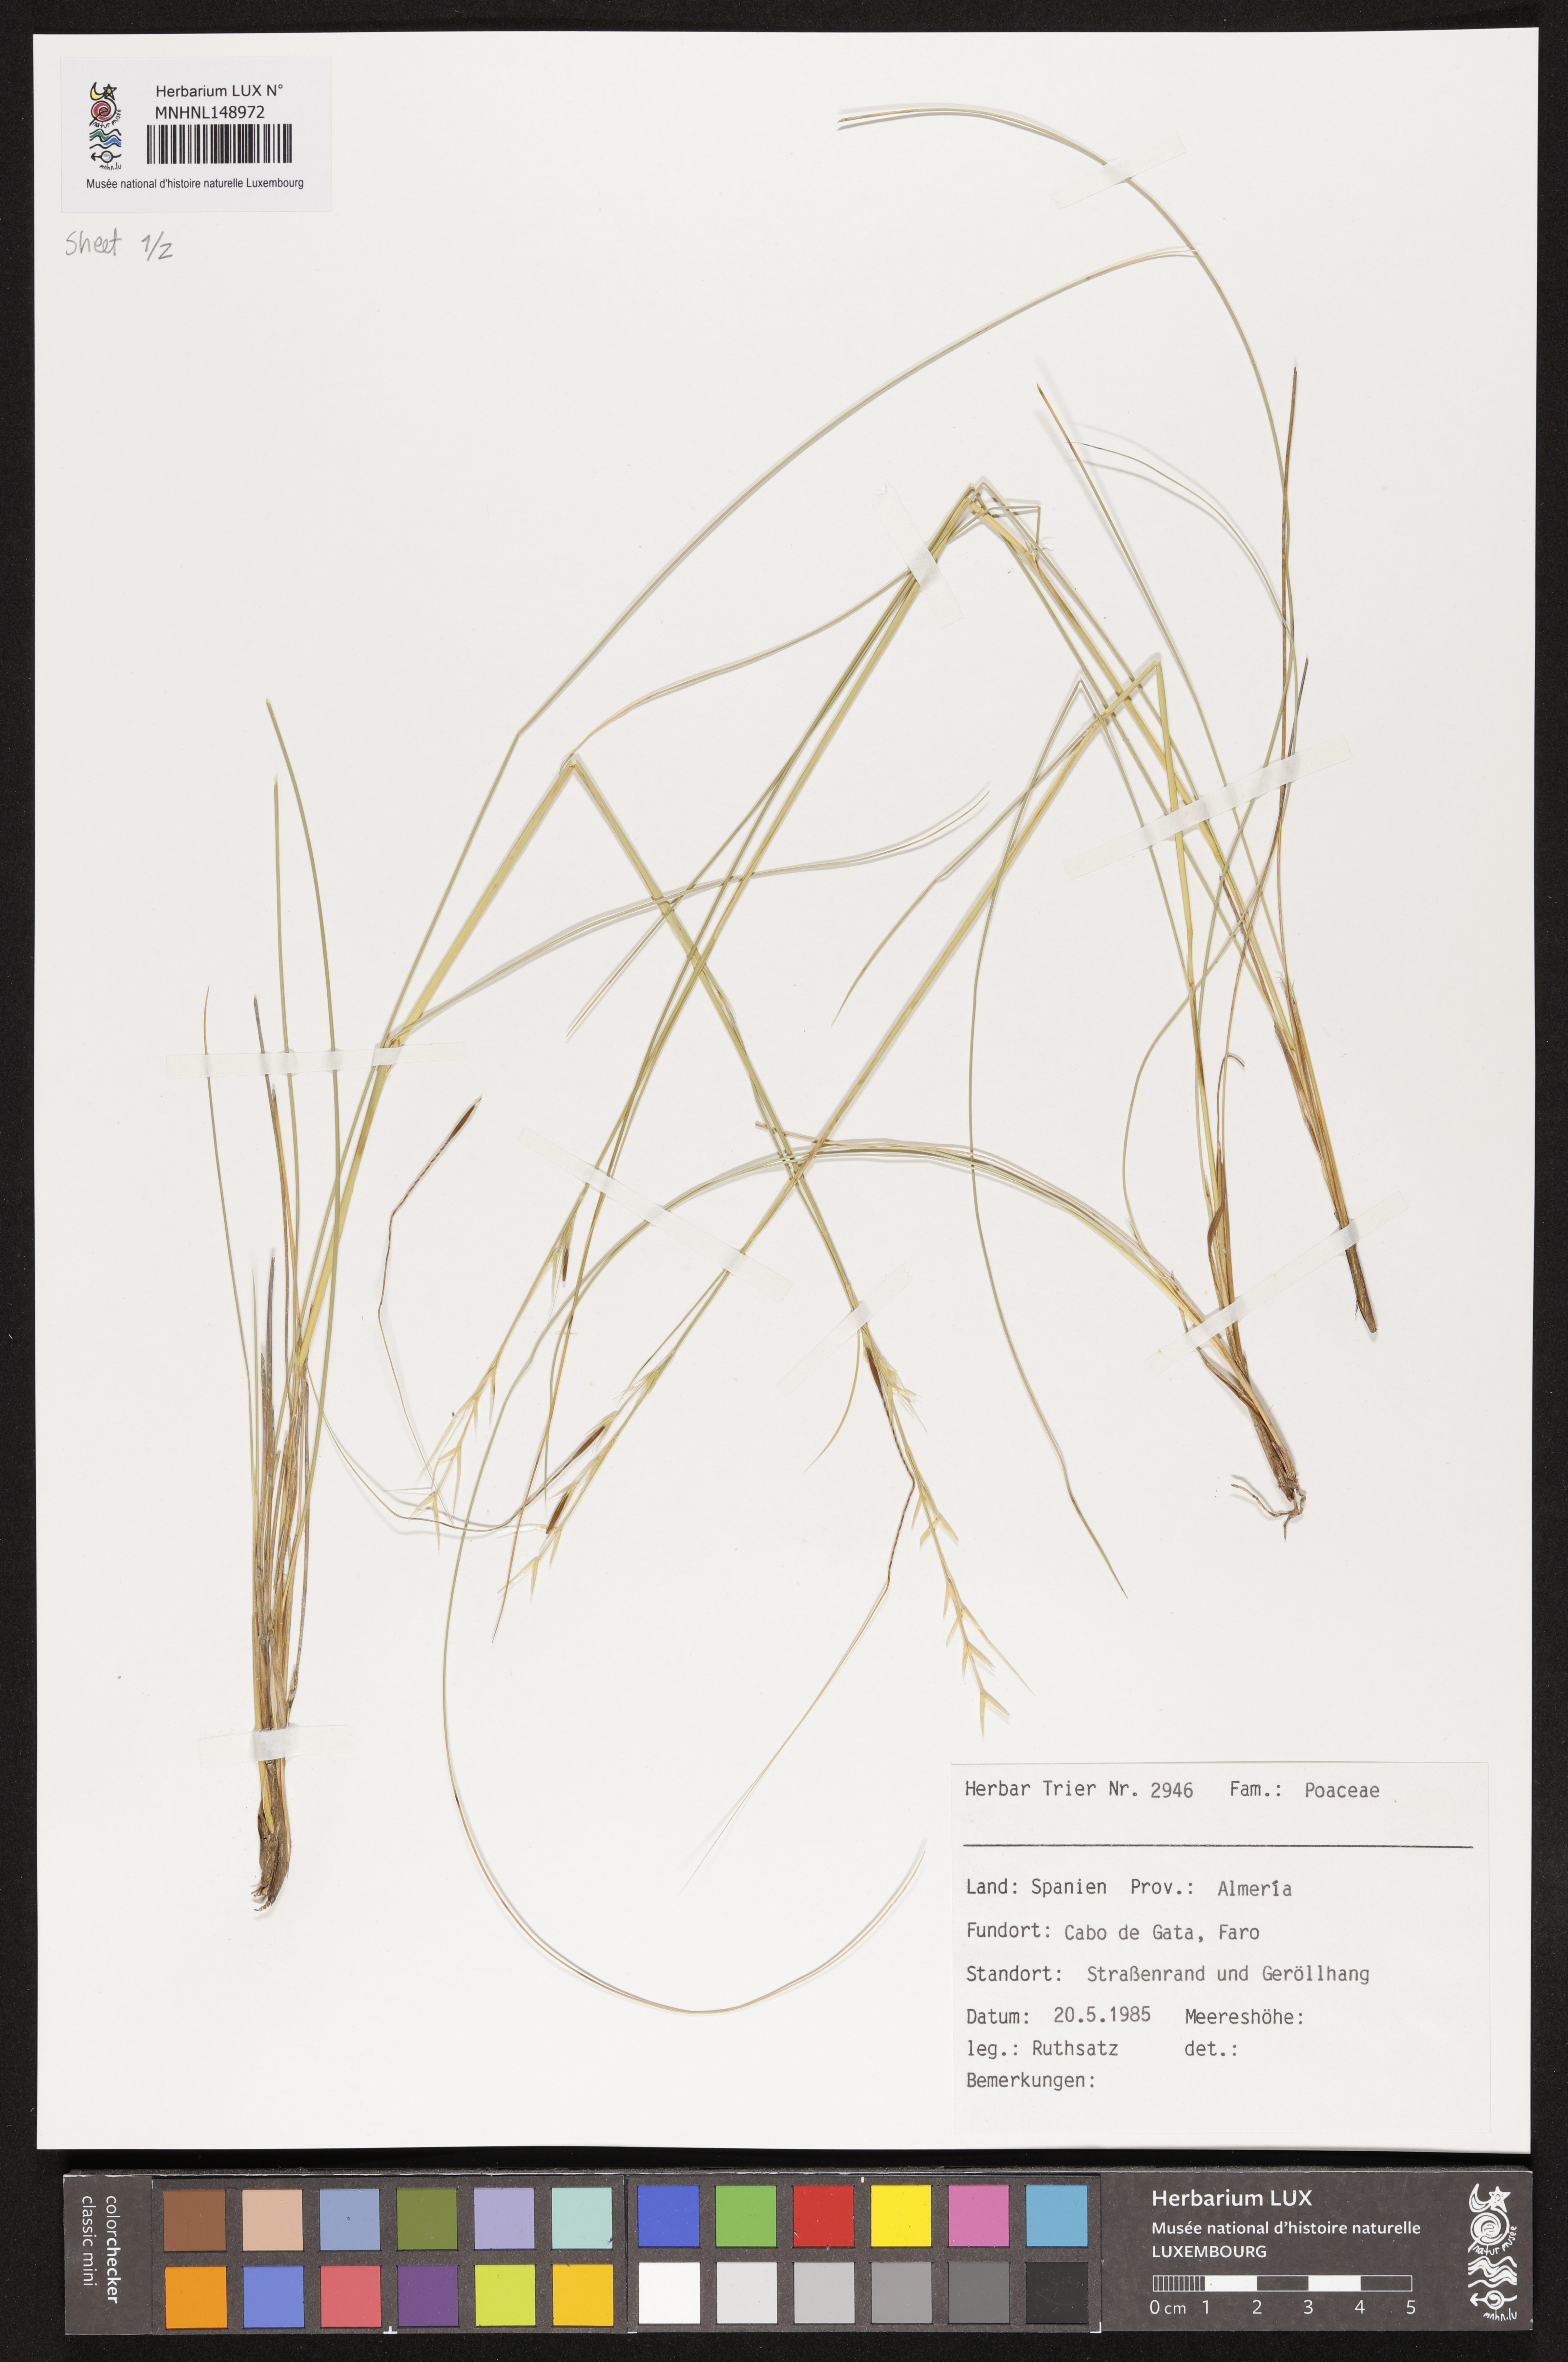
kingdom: Plantae
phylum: Tracheophyta
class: Liliopsida
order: Poales
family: Poaceae
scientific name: Poaceae
